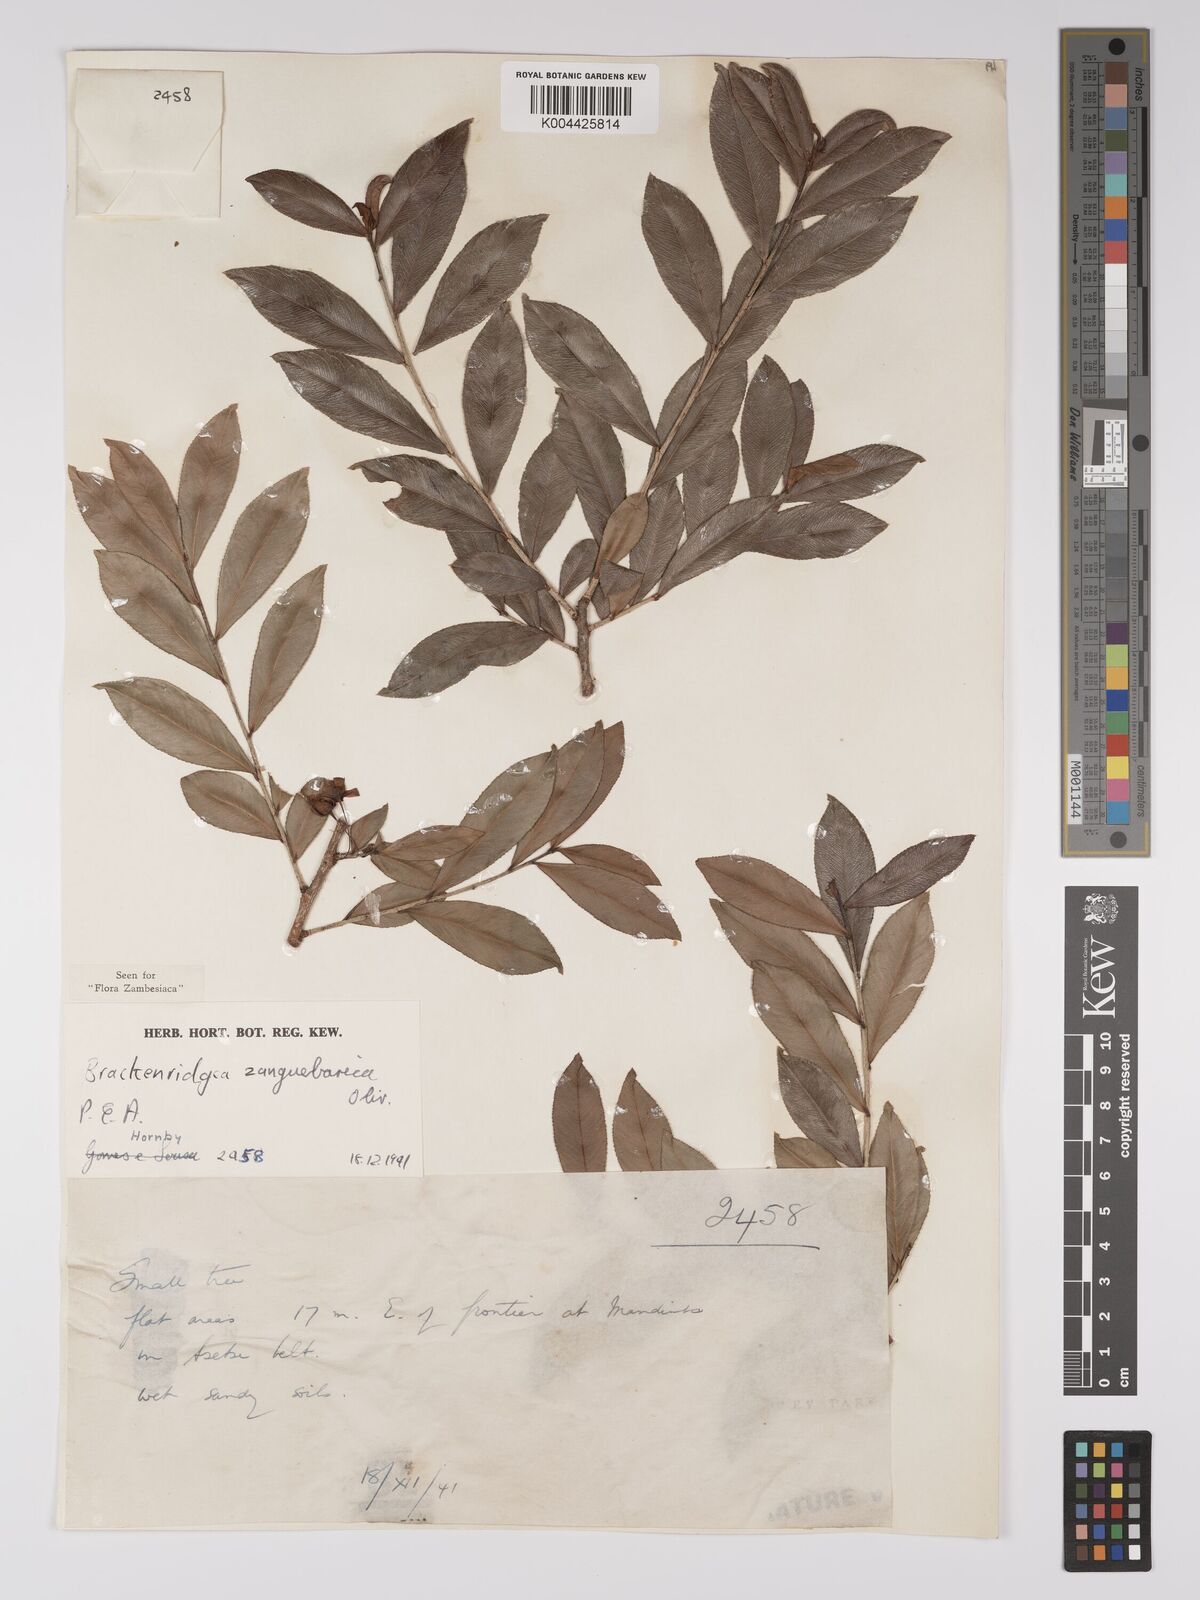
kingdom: Plantae
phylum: Tracheophyta
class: Magnoliopsida
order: Malpighiales
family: Ochnaceae
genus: Brackenridgea
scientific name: Brackenridgea zanguebarica
